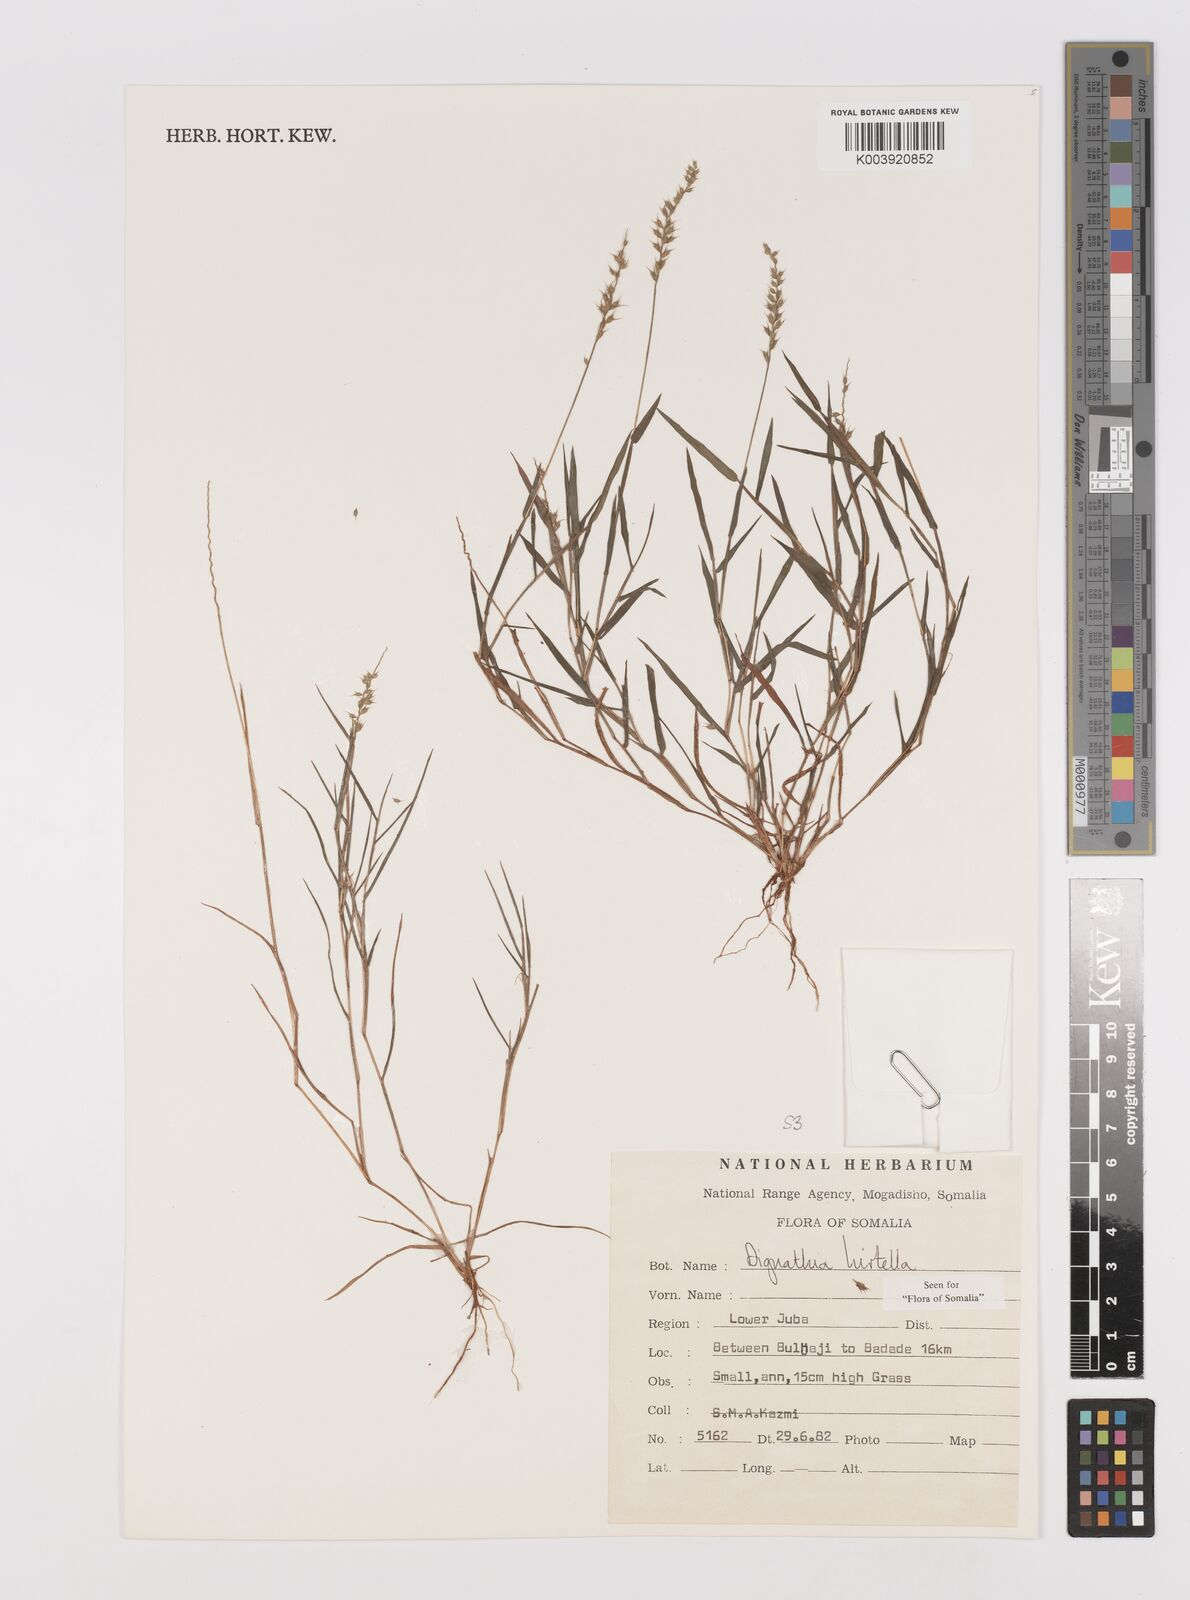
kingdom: Plantae
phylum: Tracheophyta
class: Liliopsida
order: Poales
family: Poaceae
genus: Dignathia
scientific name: Dignathia hirtella
